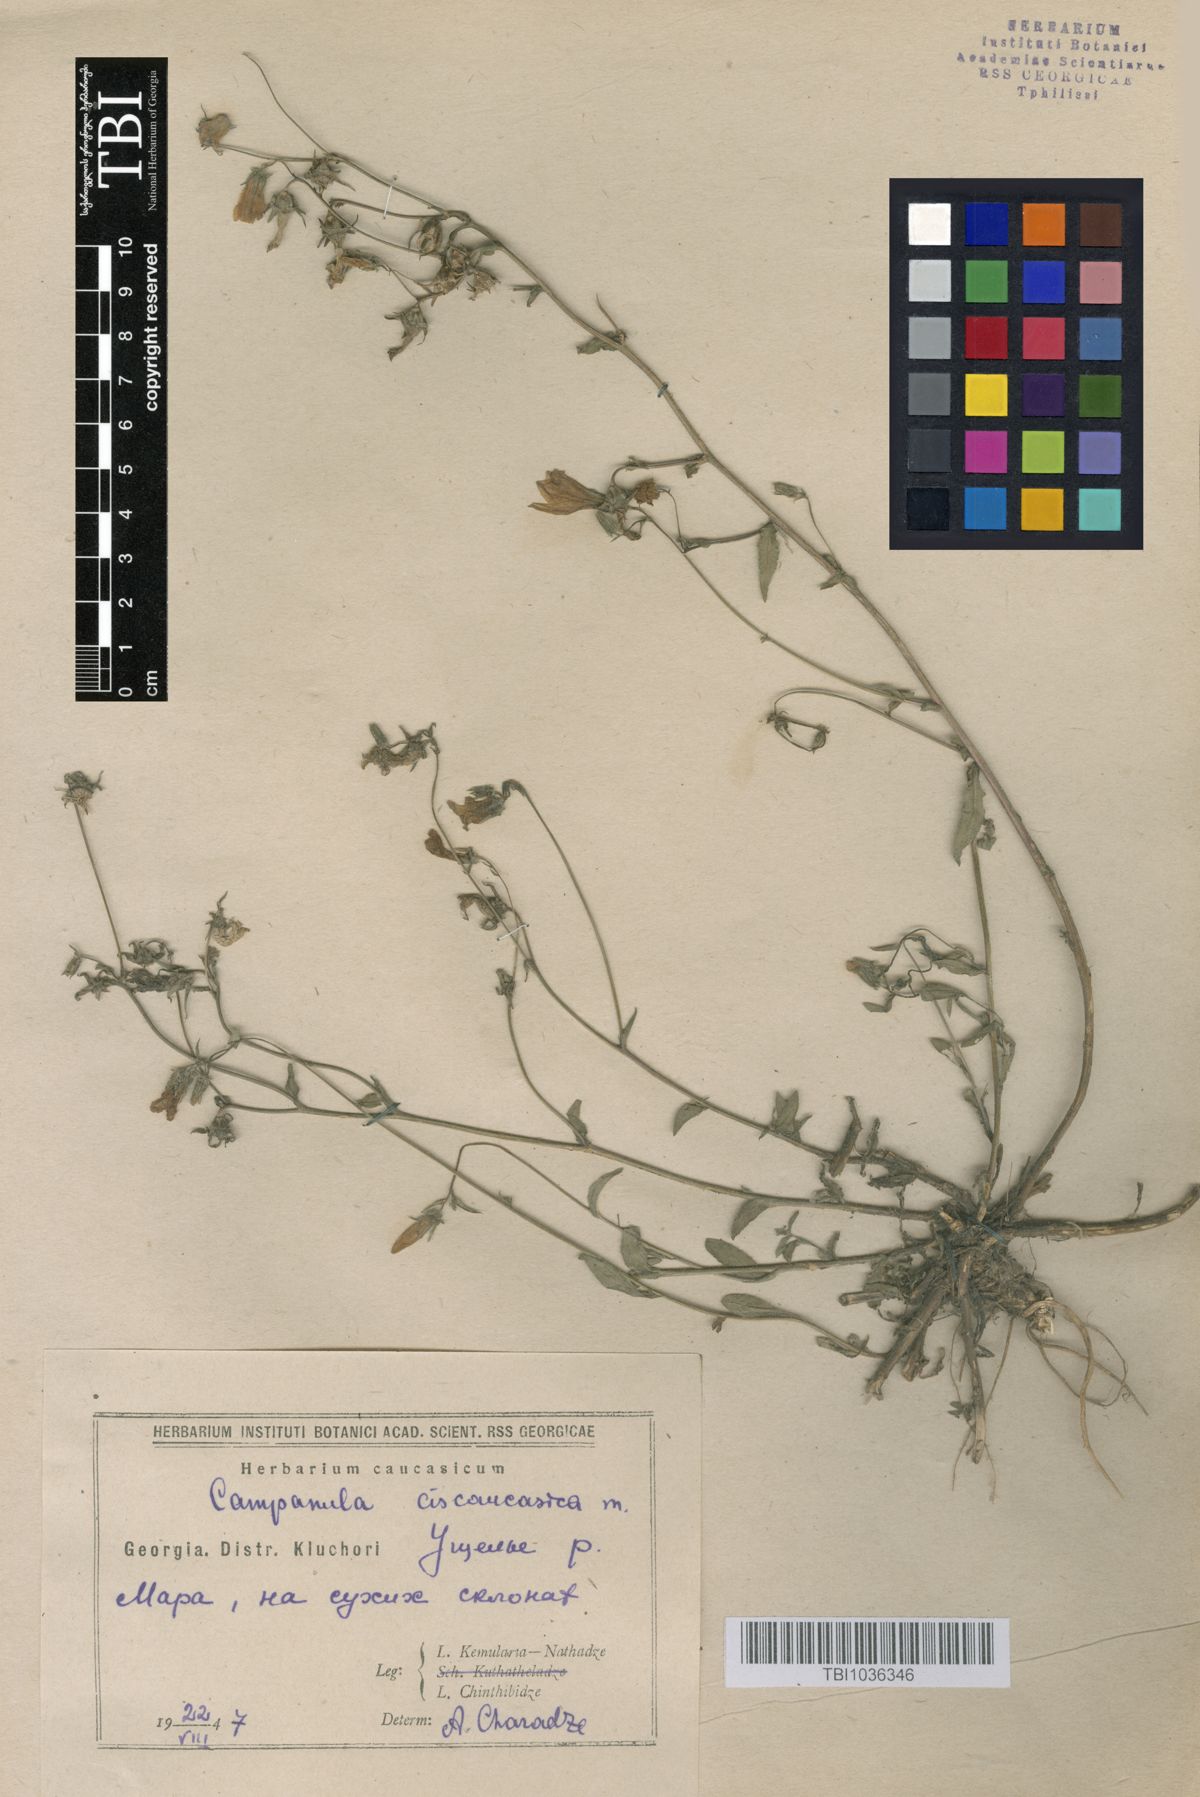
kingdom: Plantae
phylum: Tracheophyta
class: Magnoliopsida
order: Asterales
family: Campanulaceae
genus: Campanula
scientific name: Campanula sibirica
